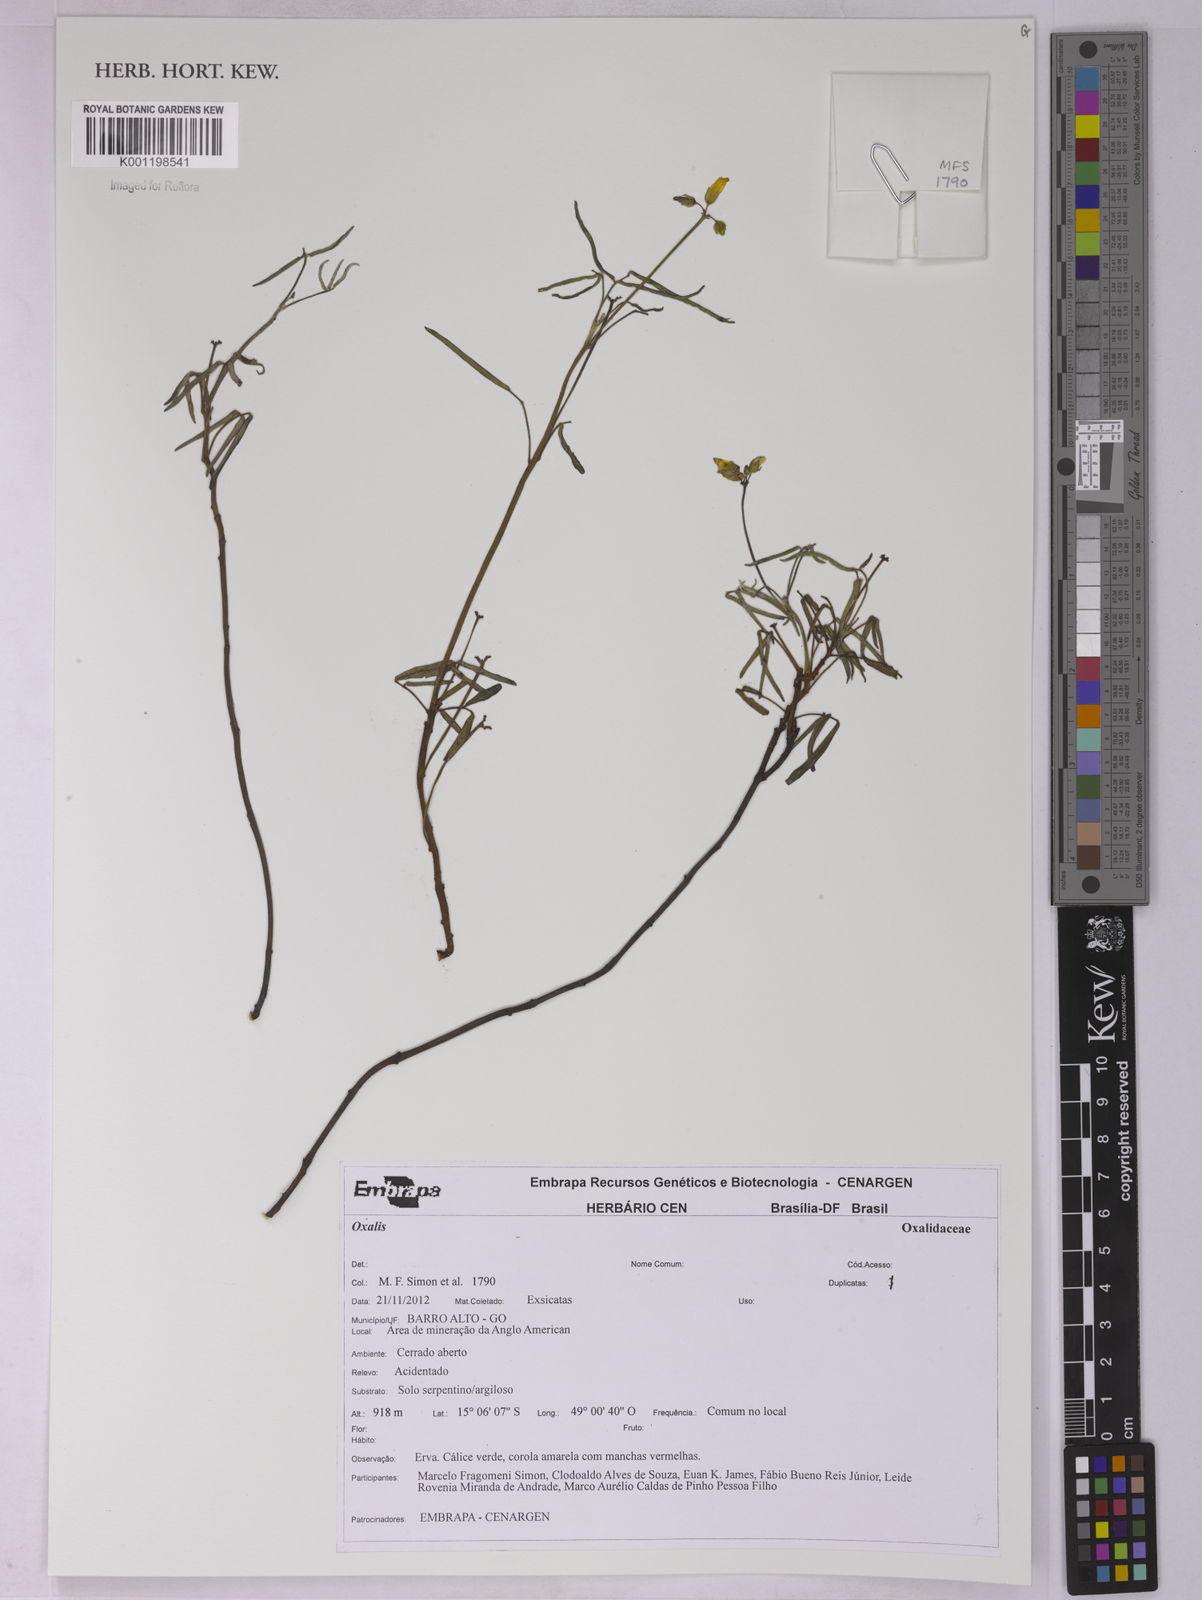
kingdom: Plantae
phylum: Tracheophyta
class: Magnoliopsida
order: Oxalidales
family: Oxalidaceae
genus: Oxalis
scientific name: Oxalis
